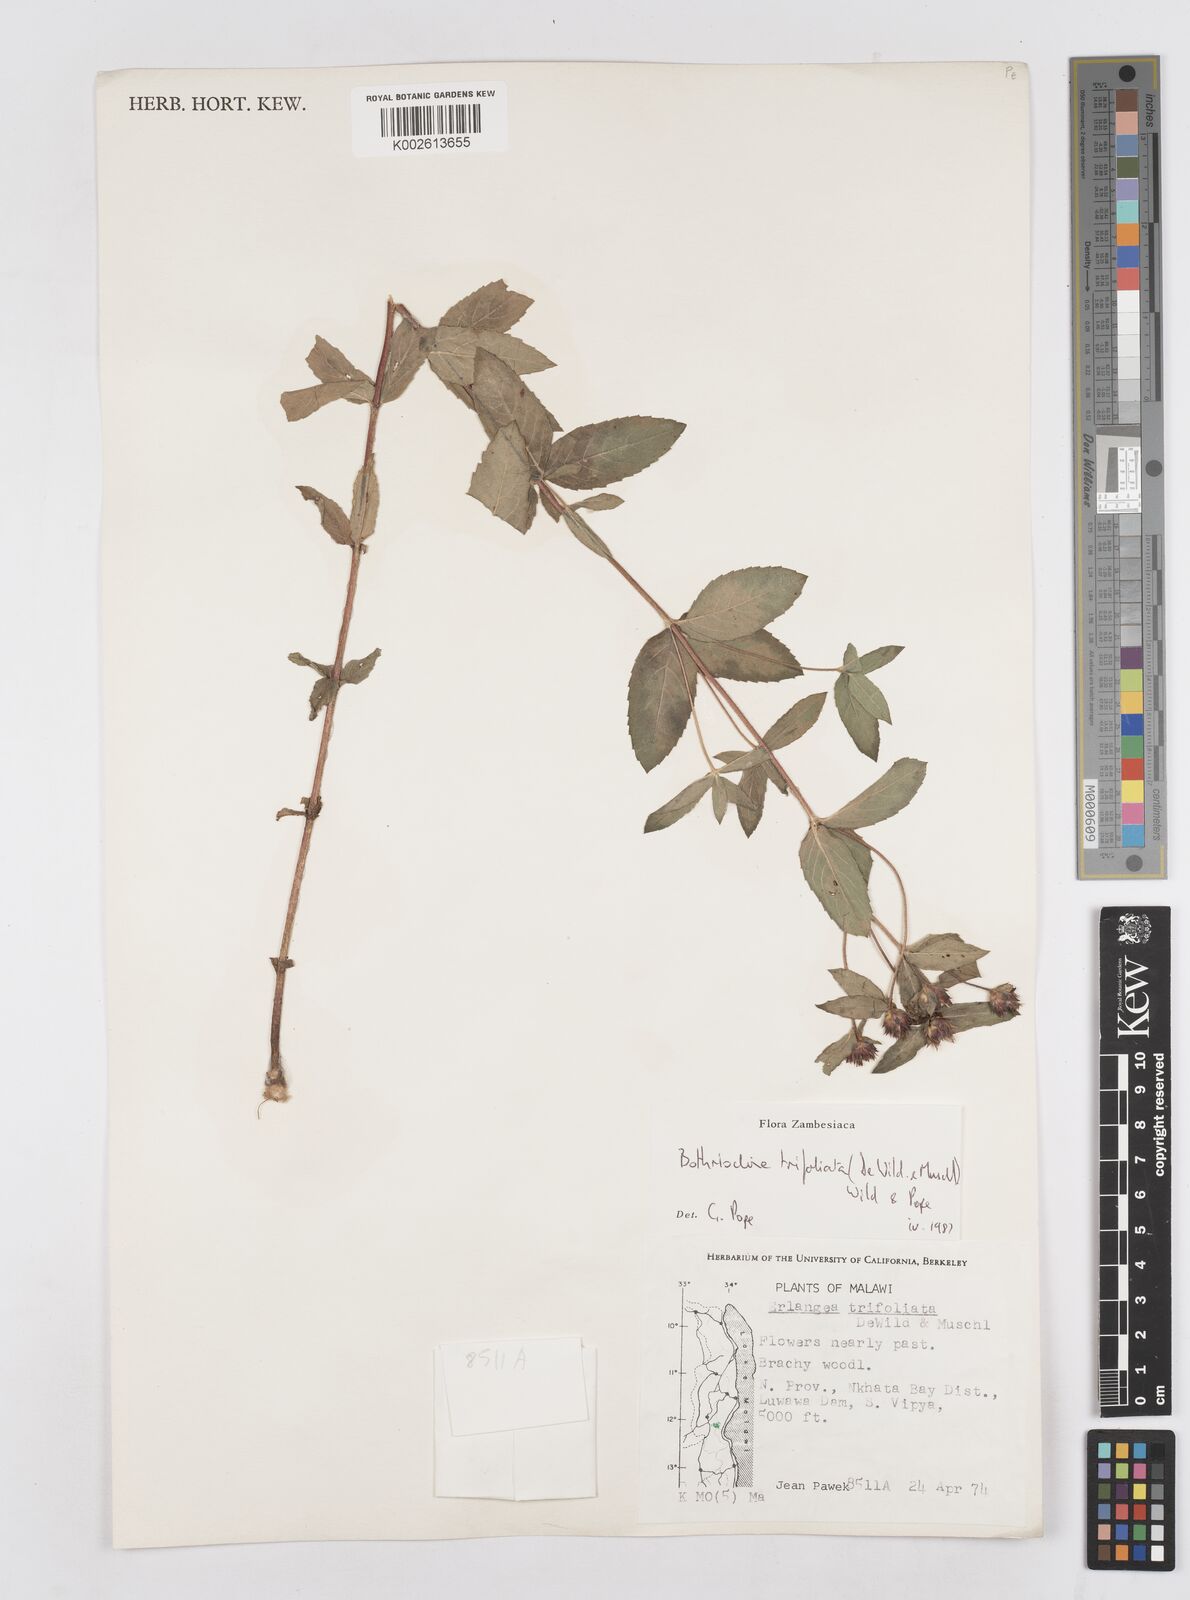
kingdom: Plantae
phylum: Tracheophyta
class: Magnoliopsida
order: Asterales
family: Asteraceae
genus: Bothriocline
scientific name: Bothriocline trifoliata
